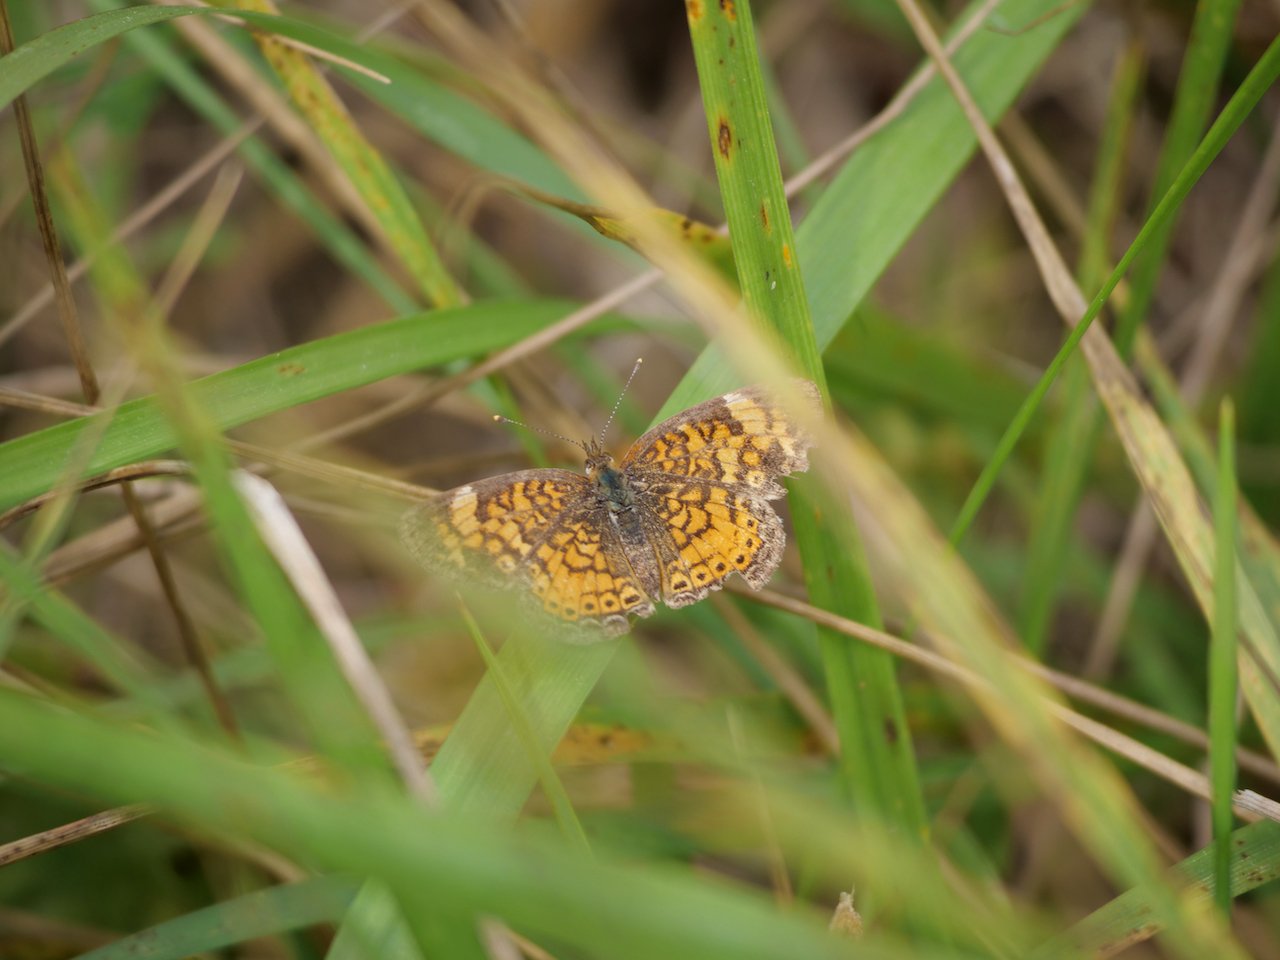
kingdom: Animalia
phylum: Arthropoda
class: Insecta
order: Lepidoptera
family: Nymphalidae
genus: Phyciodes
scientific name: Phyciodes tharos
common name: Northern Crescent
